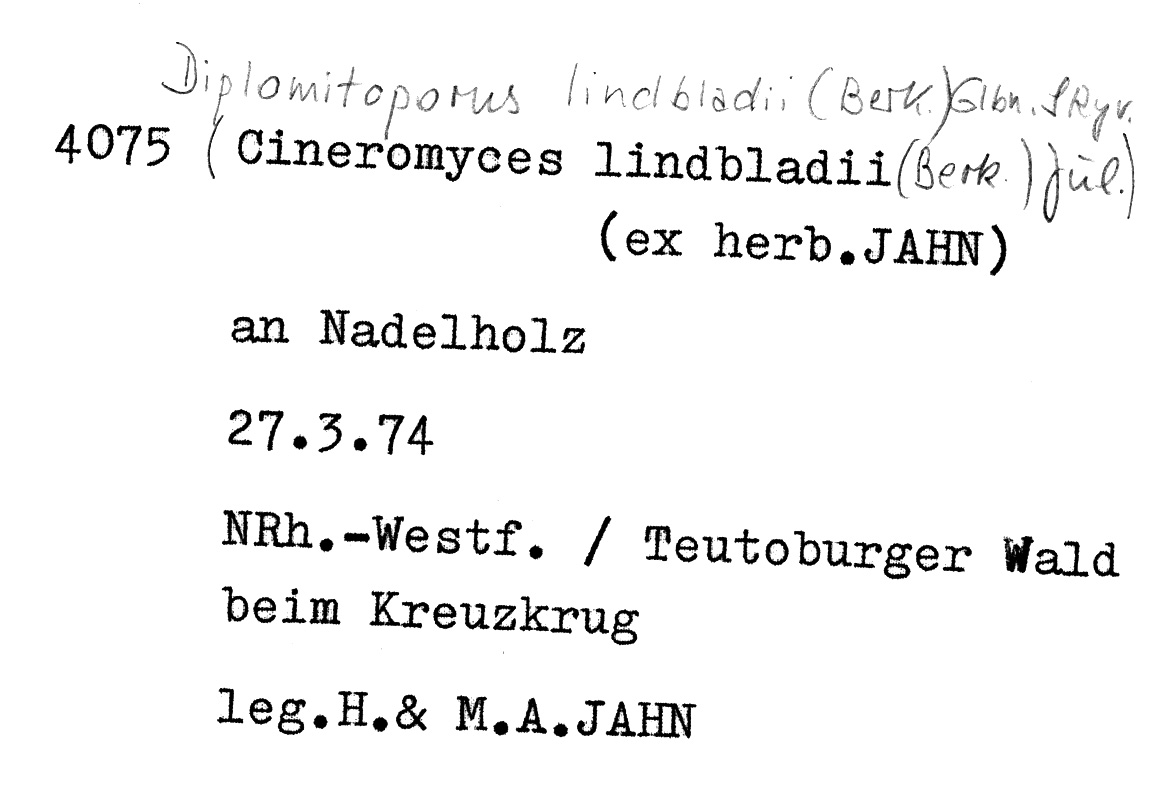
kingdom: Fungi
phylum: Basidiomycota
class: Agaricomycetes
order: Polyporales
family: Gelatoporiaceae
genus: Cinereomyces
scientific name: Cinereomyces lindbladii
